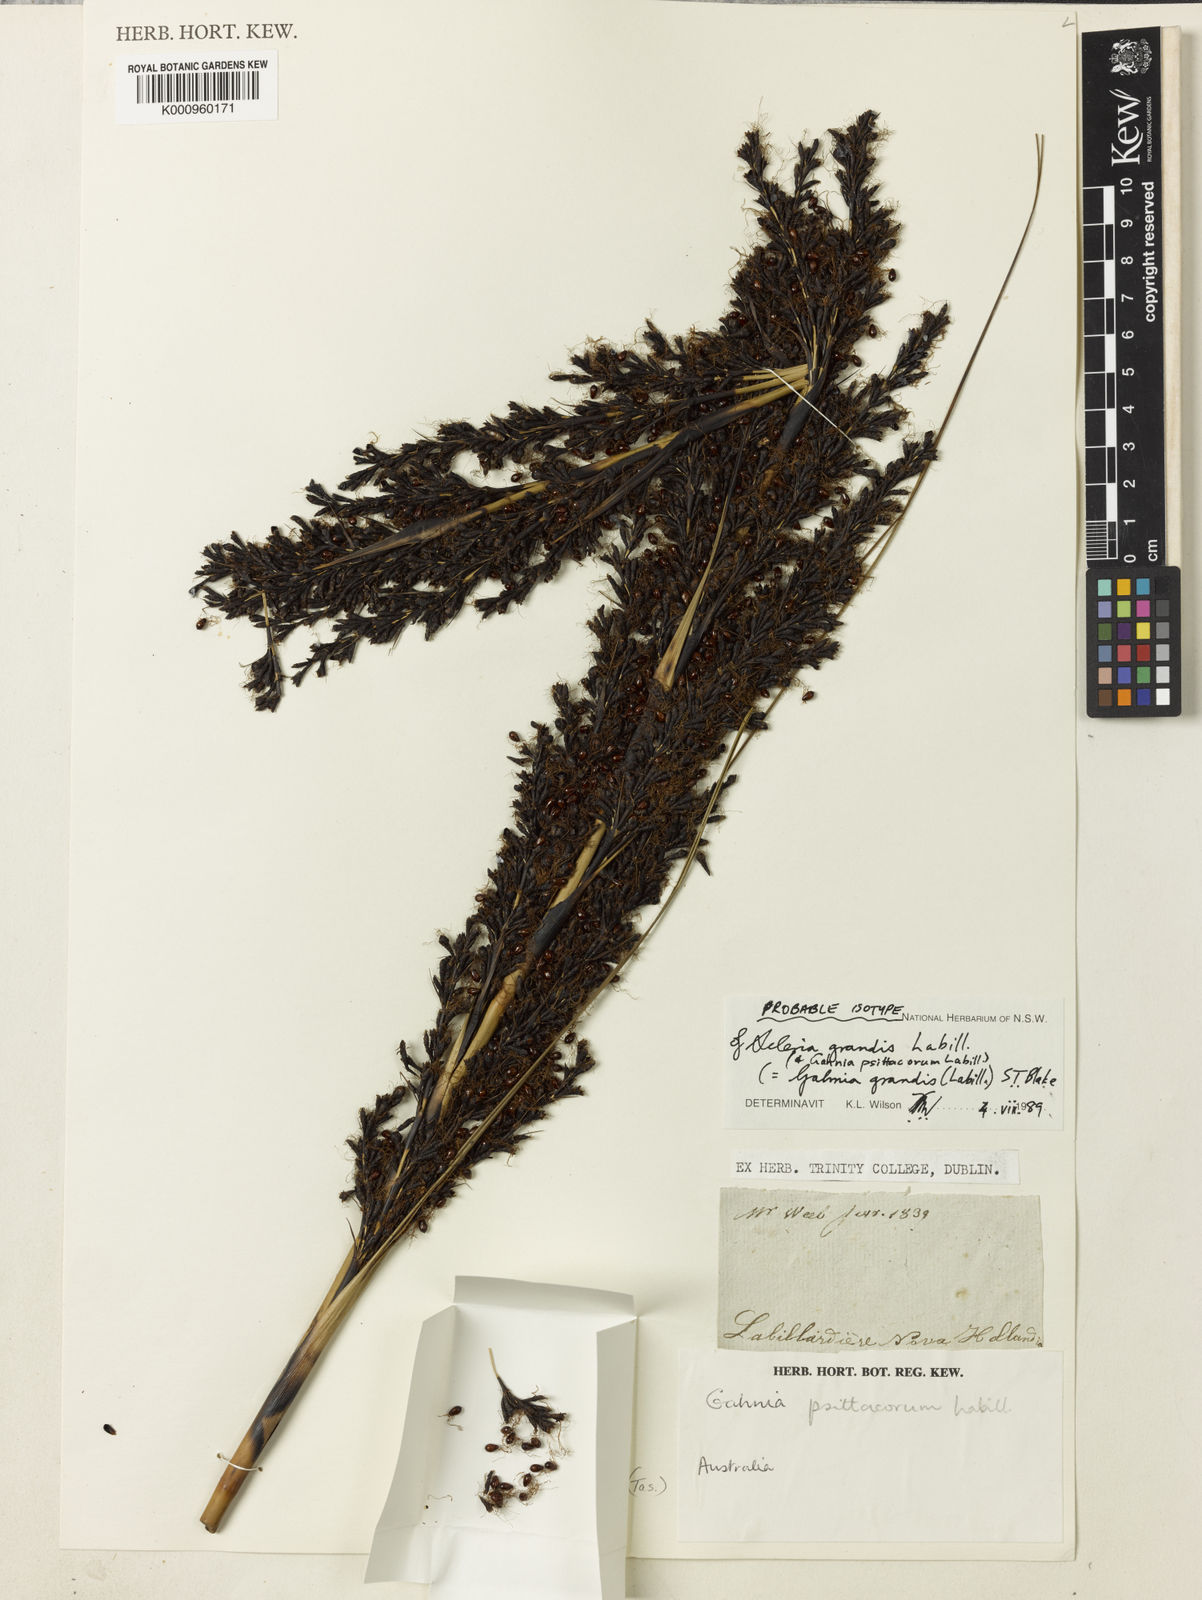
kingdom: Plantae
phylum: Tracheophyta
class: Liliopsida
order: Poales
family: Cyperaceae
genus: Gahnia
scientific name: Gahnia grandis
